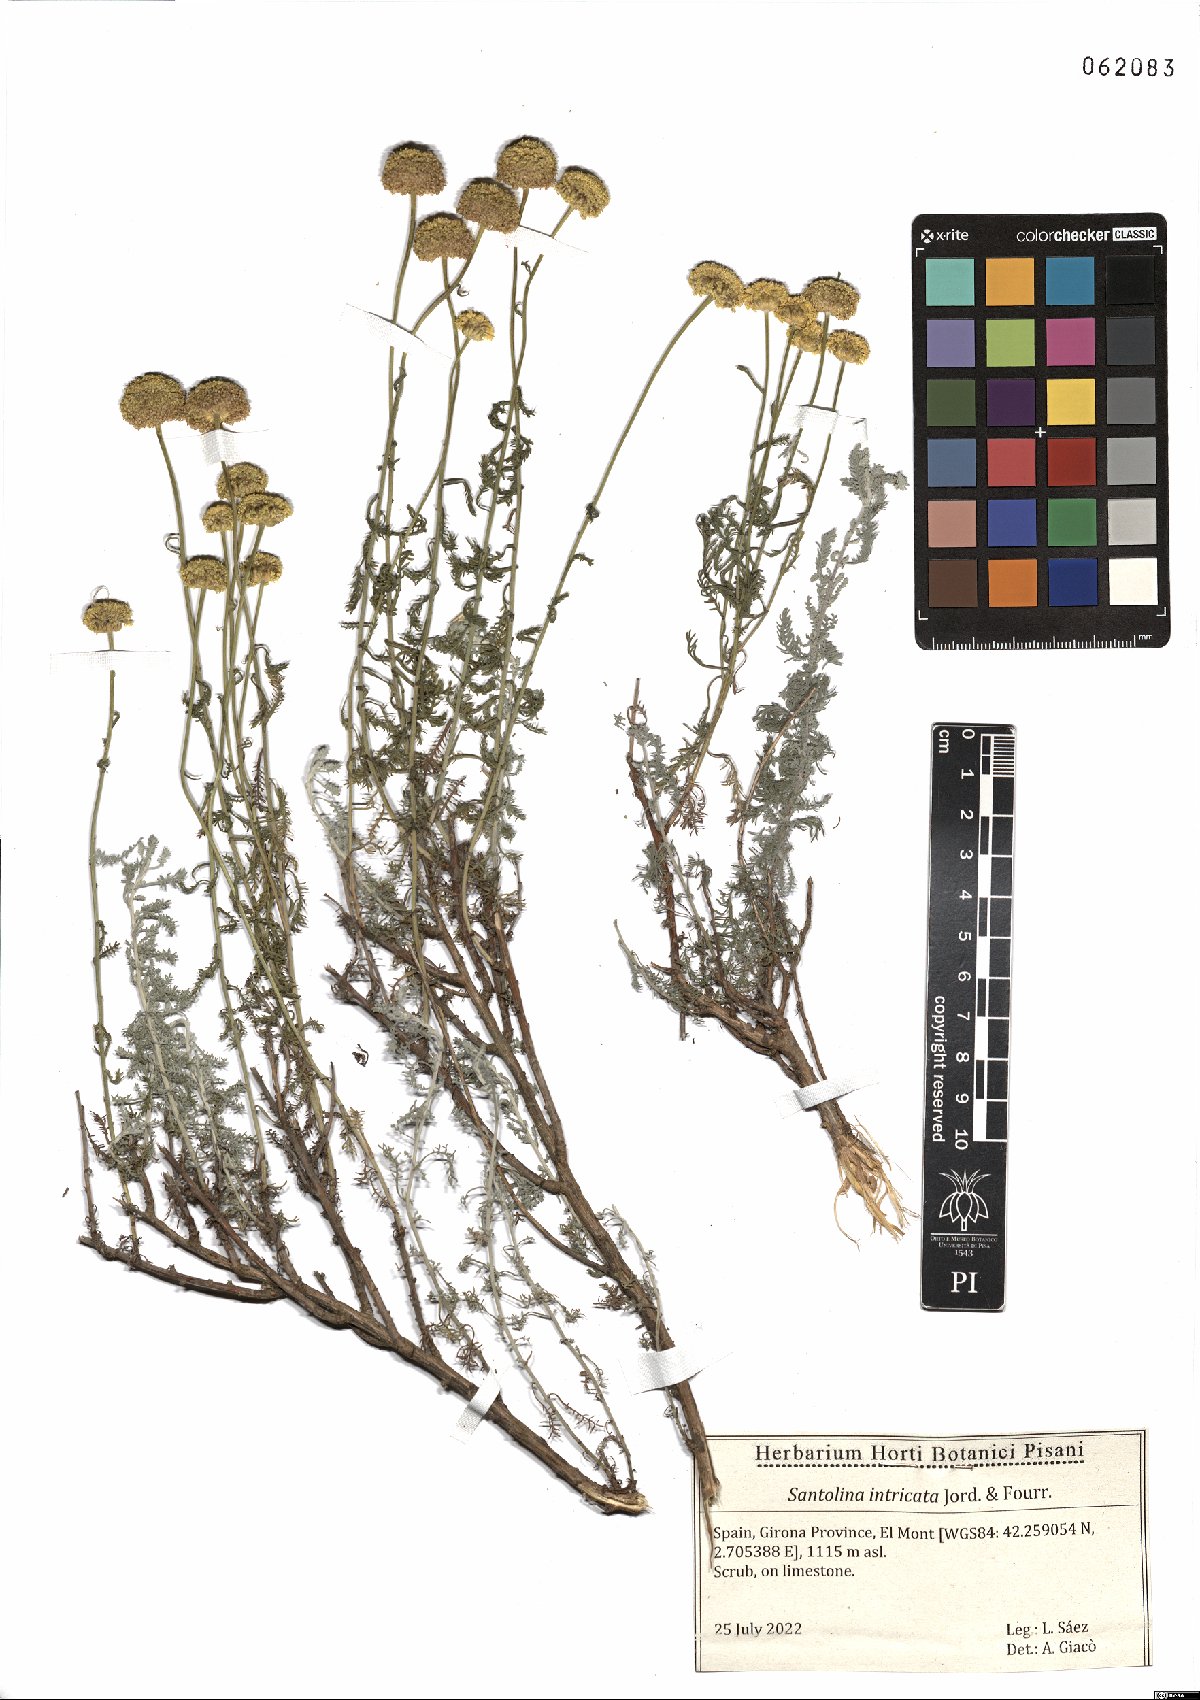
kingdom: Plantae
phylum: Tracheophyta
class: Magnoliopsida
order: Asterales
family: Asteraceae
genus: Santolina
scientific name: Santolina benthamiana
